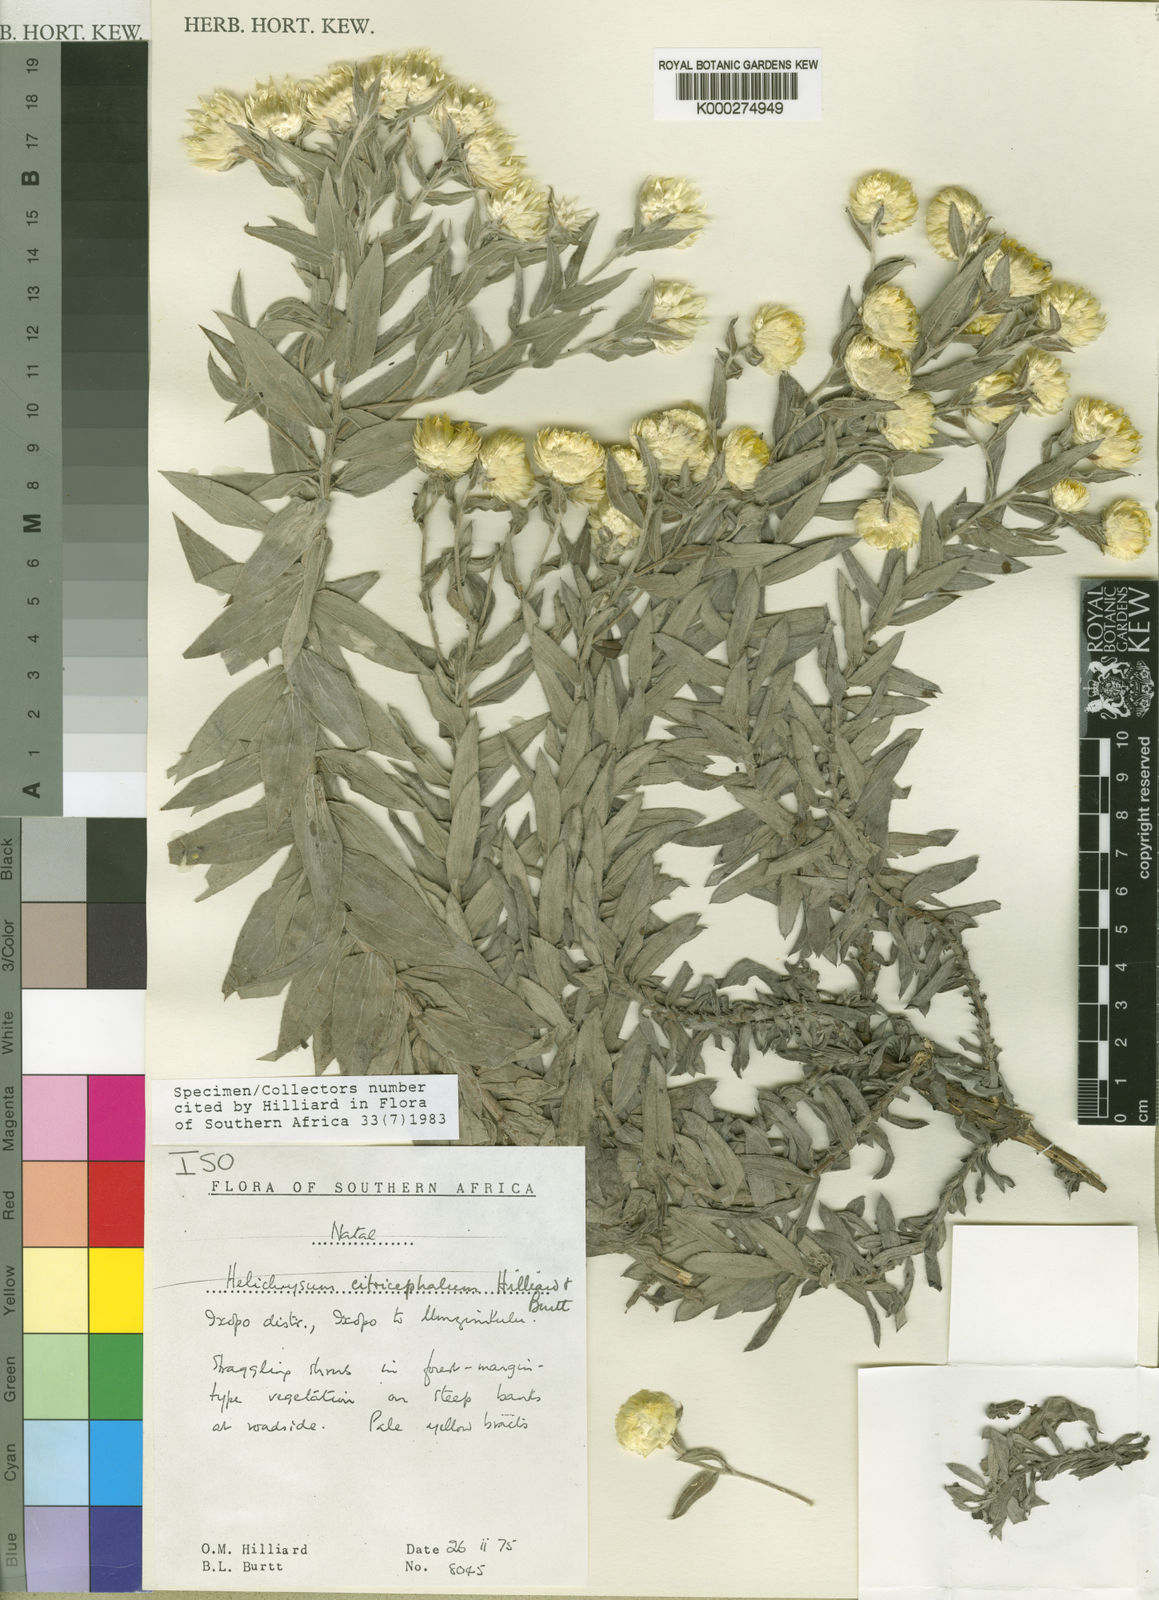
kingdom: Plantae
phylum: Tracheophyta
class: Magnoliopsida
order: Asterales
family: Asteraceae
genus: Helichrysum
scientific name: Helichrysum citricephalum
